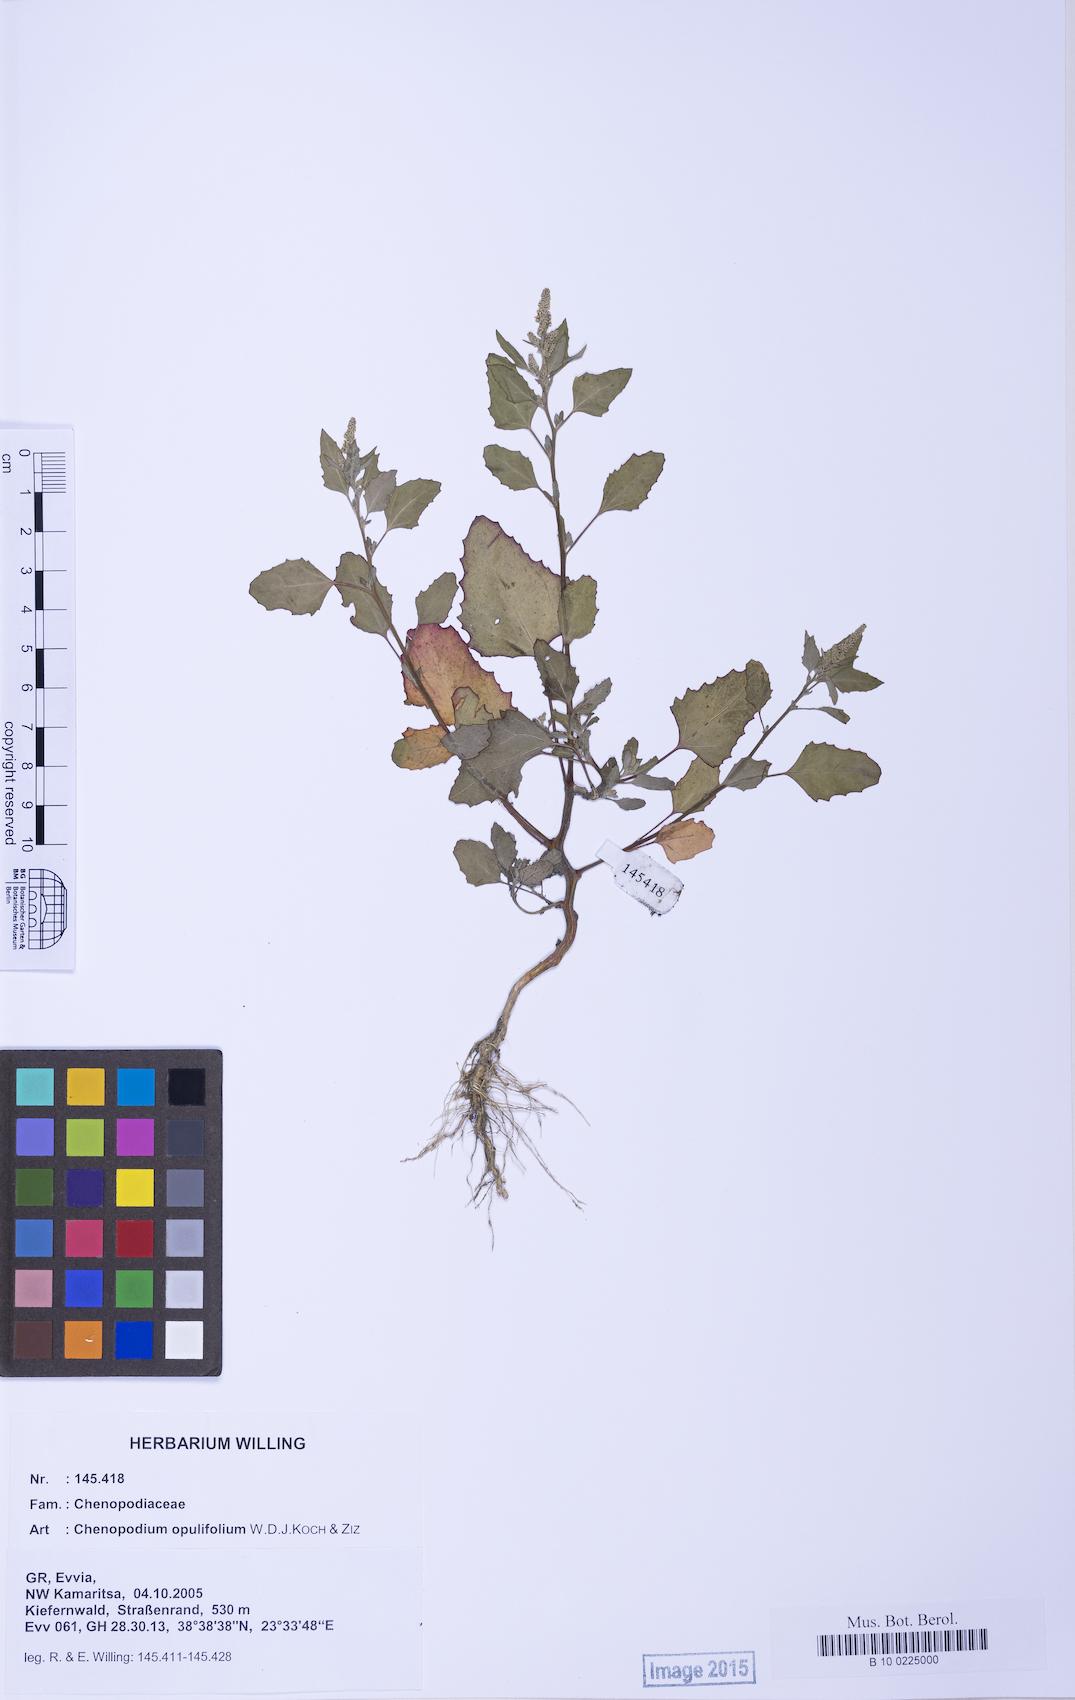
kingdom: Plantae
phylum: Tracheophyta
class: Magnoliopsida
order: Caryophyllales
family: Amaranthaceae
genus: Chenopodium
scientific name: Chenopodium album
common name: Fat-hen
